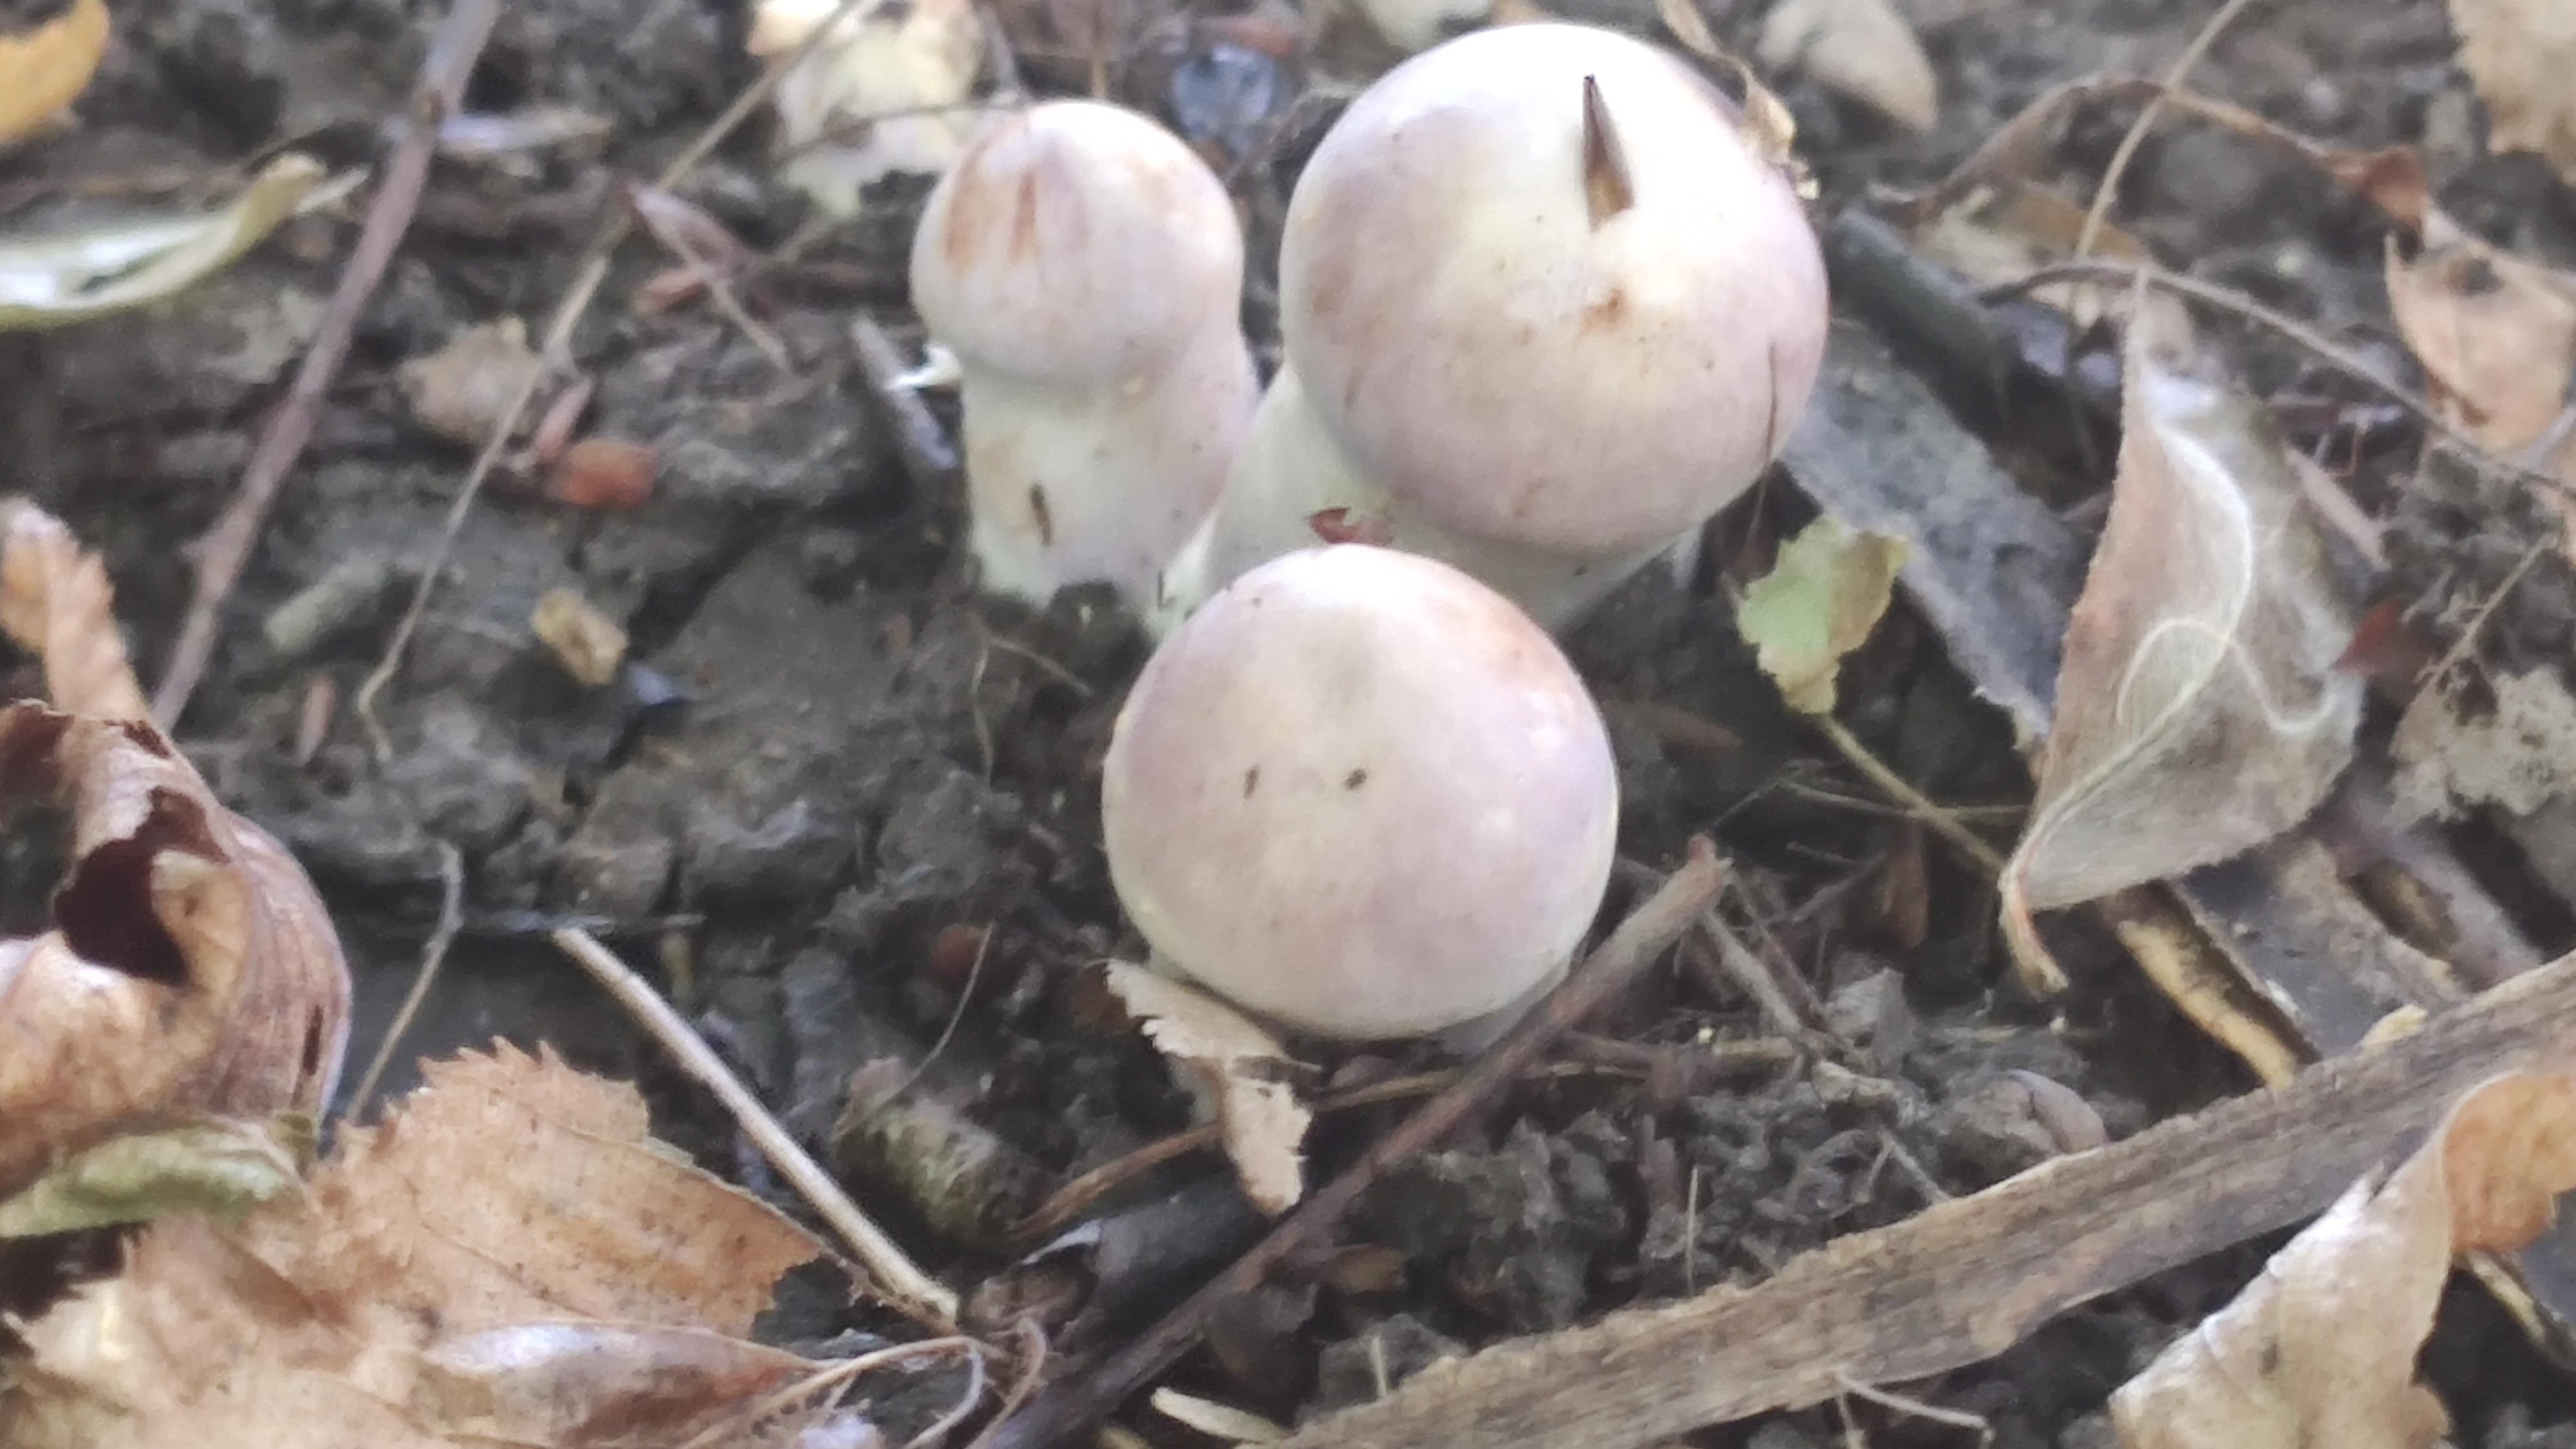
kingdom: Fungi
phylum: Basidiomycota
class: Agaricomycetes
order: Agaricales
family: Cortinariaceae
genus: Cortinarius
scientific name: Cortinarius
